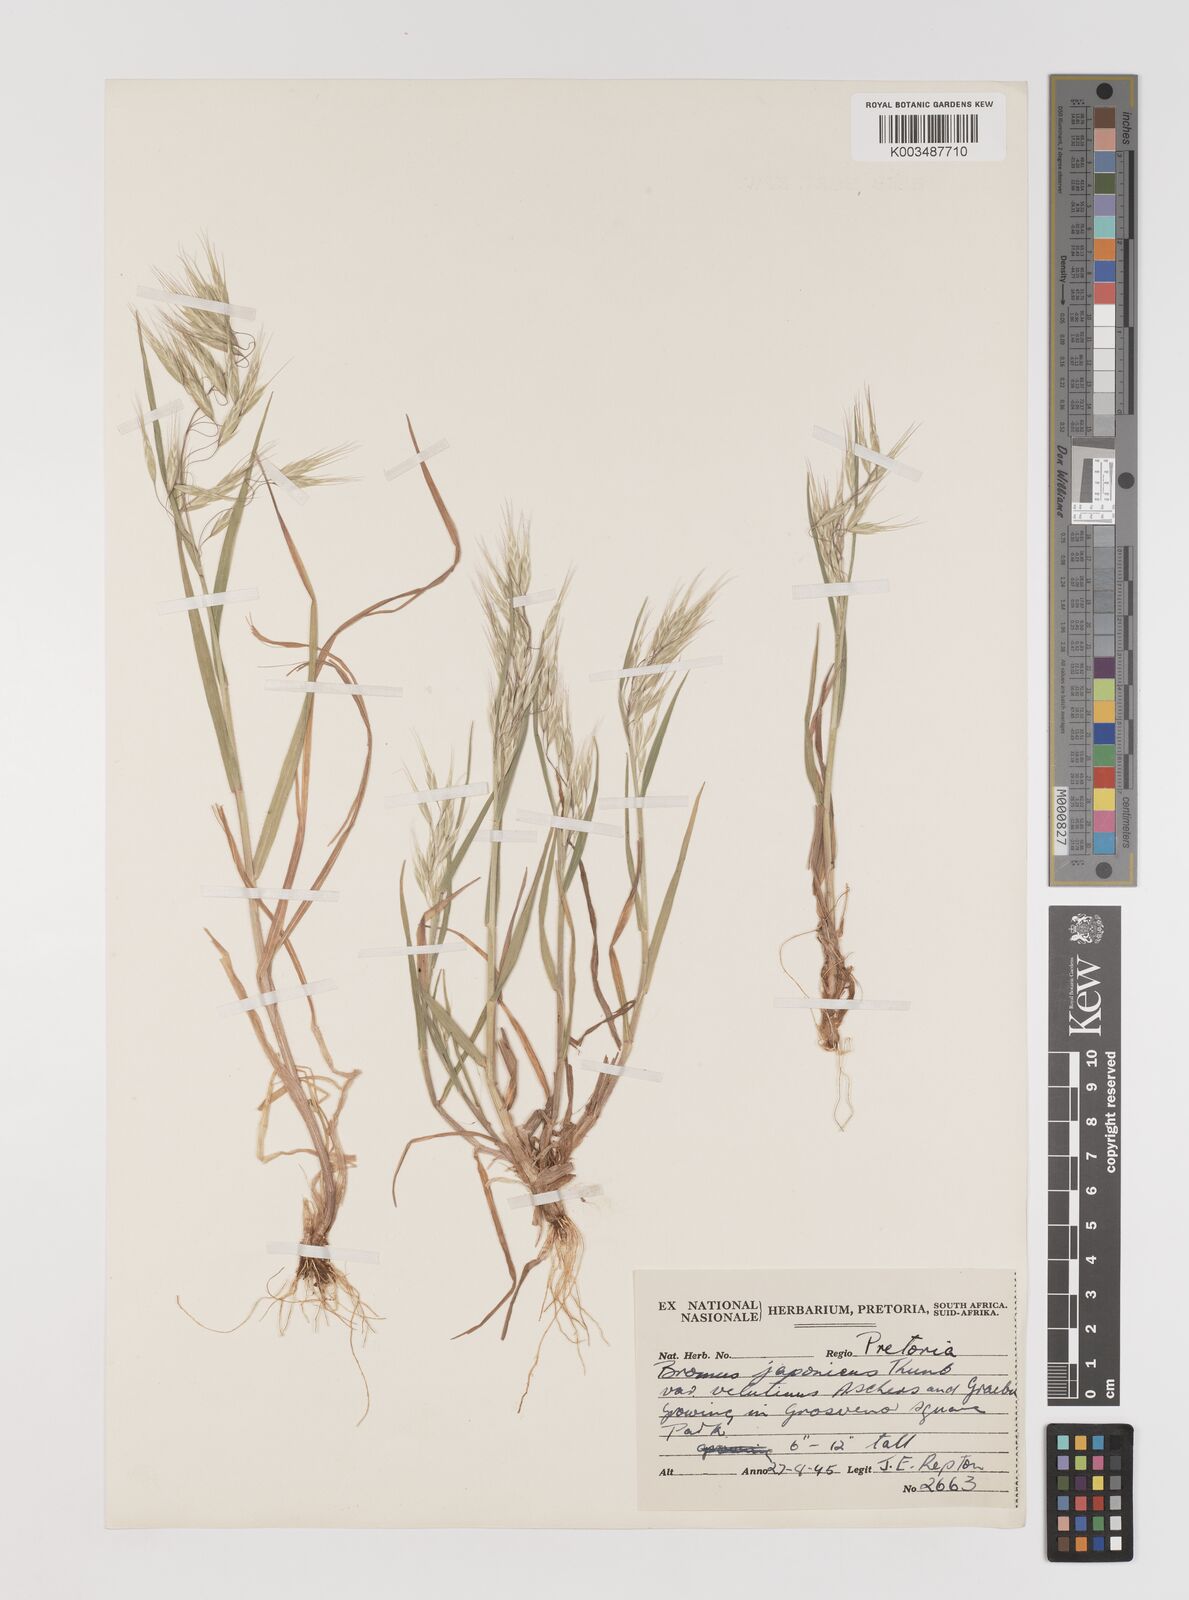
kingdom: Plantae
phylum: Tracheophyta
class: Liliopsida
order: Poales
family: Poaceae
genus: Bromus
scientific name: Bromus pectinatus
